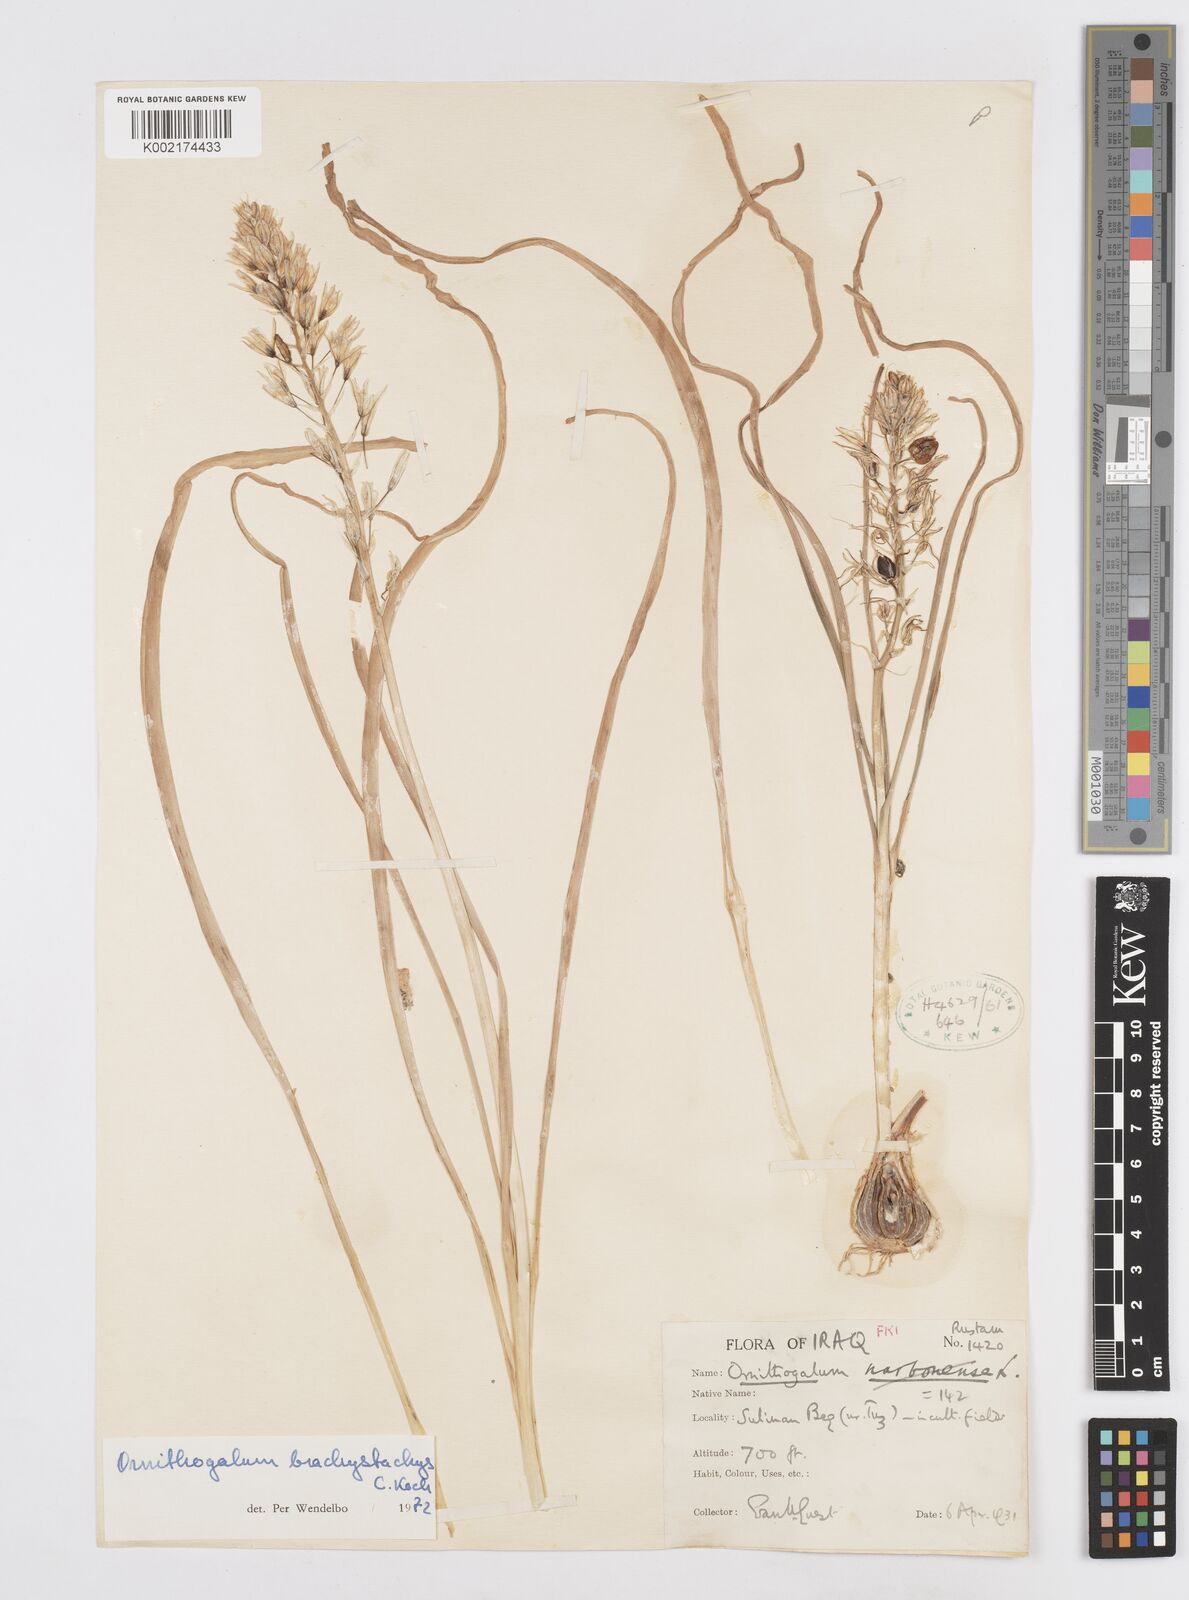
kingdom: Plantae
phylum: Tracheophyta
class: Liliopsida
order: Asparagales
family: Asparagaceae
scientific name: Asparagaceae
